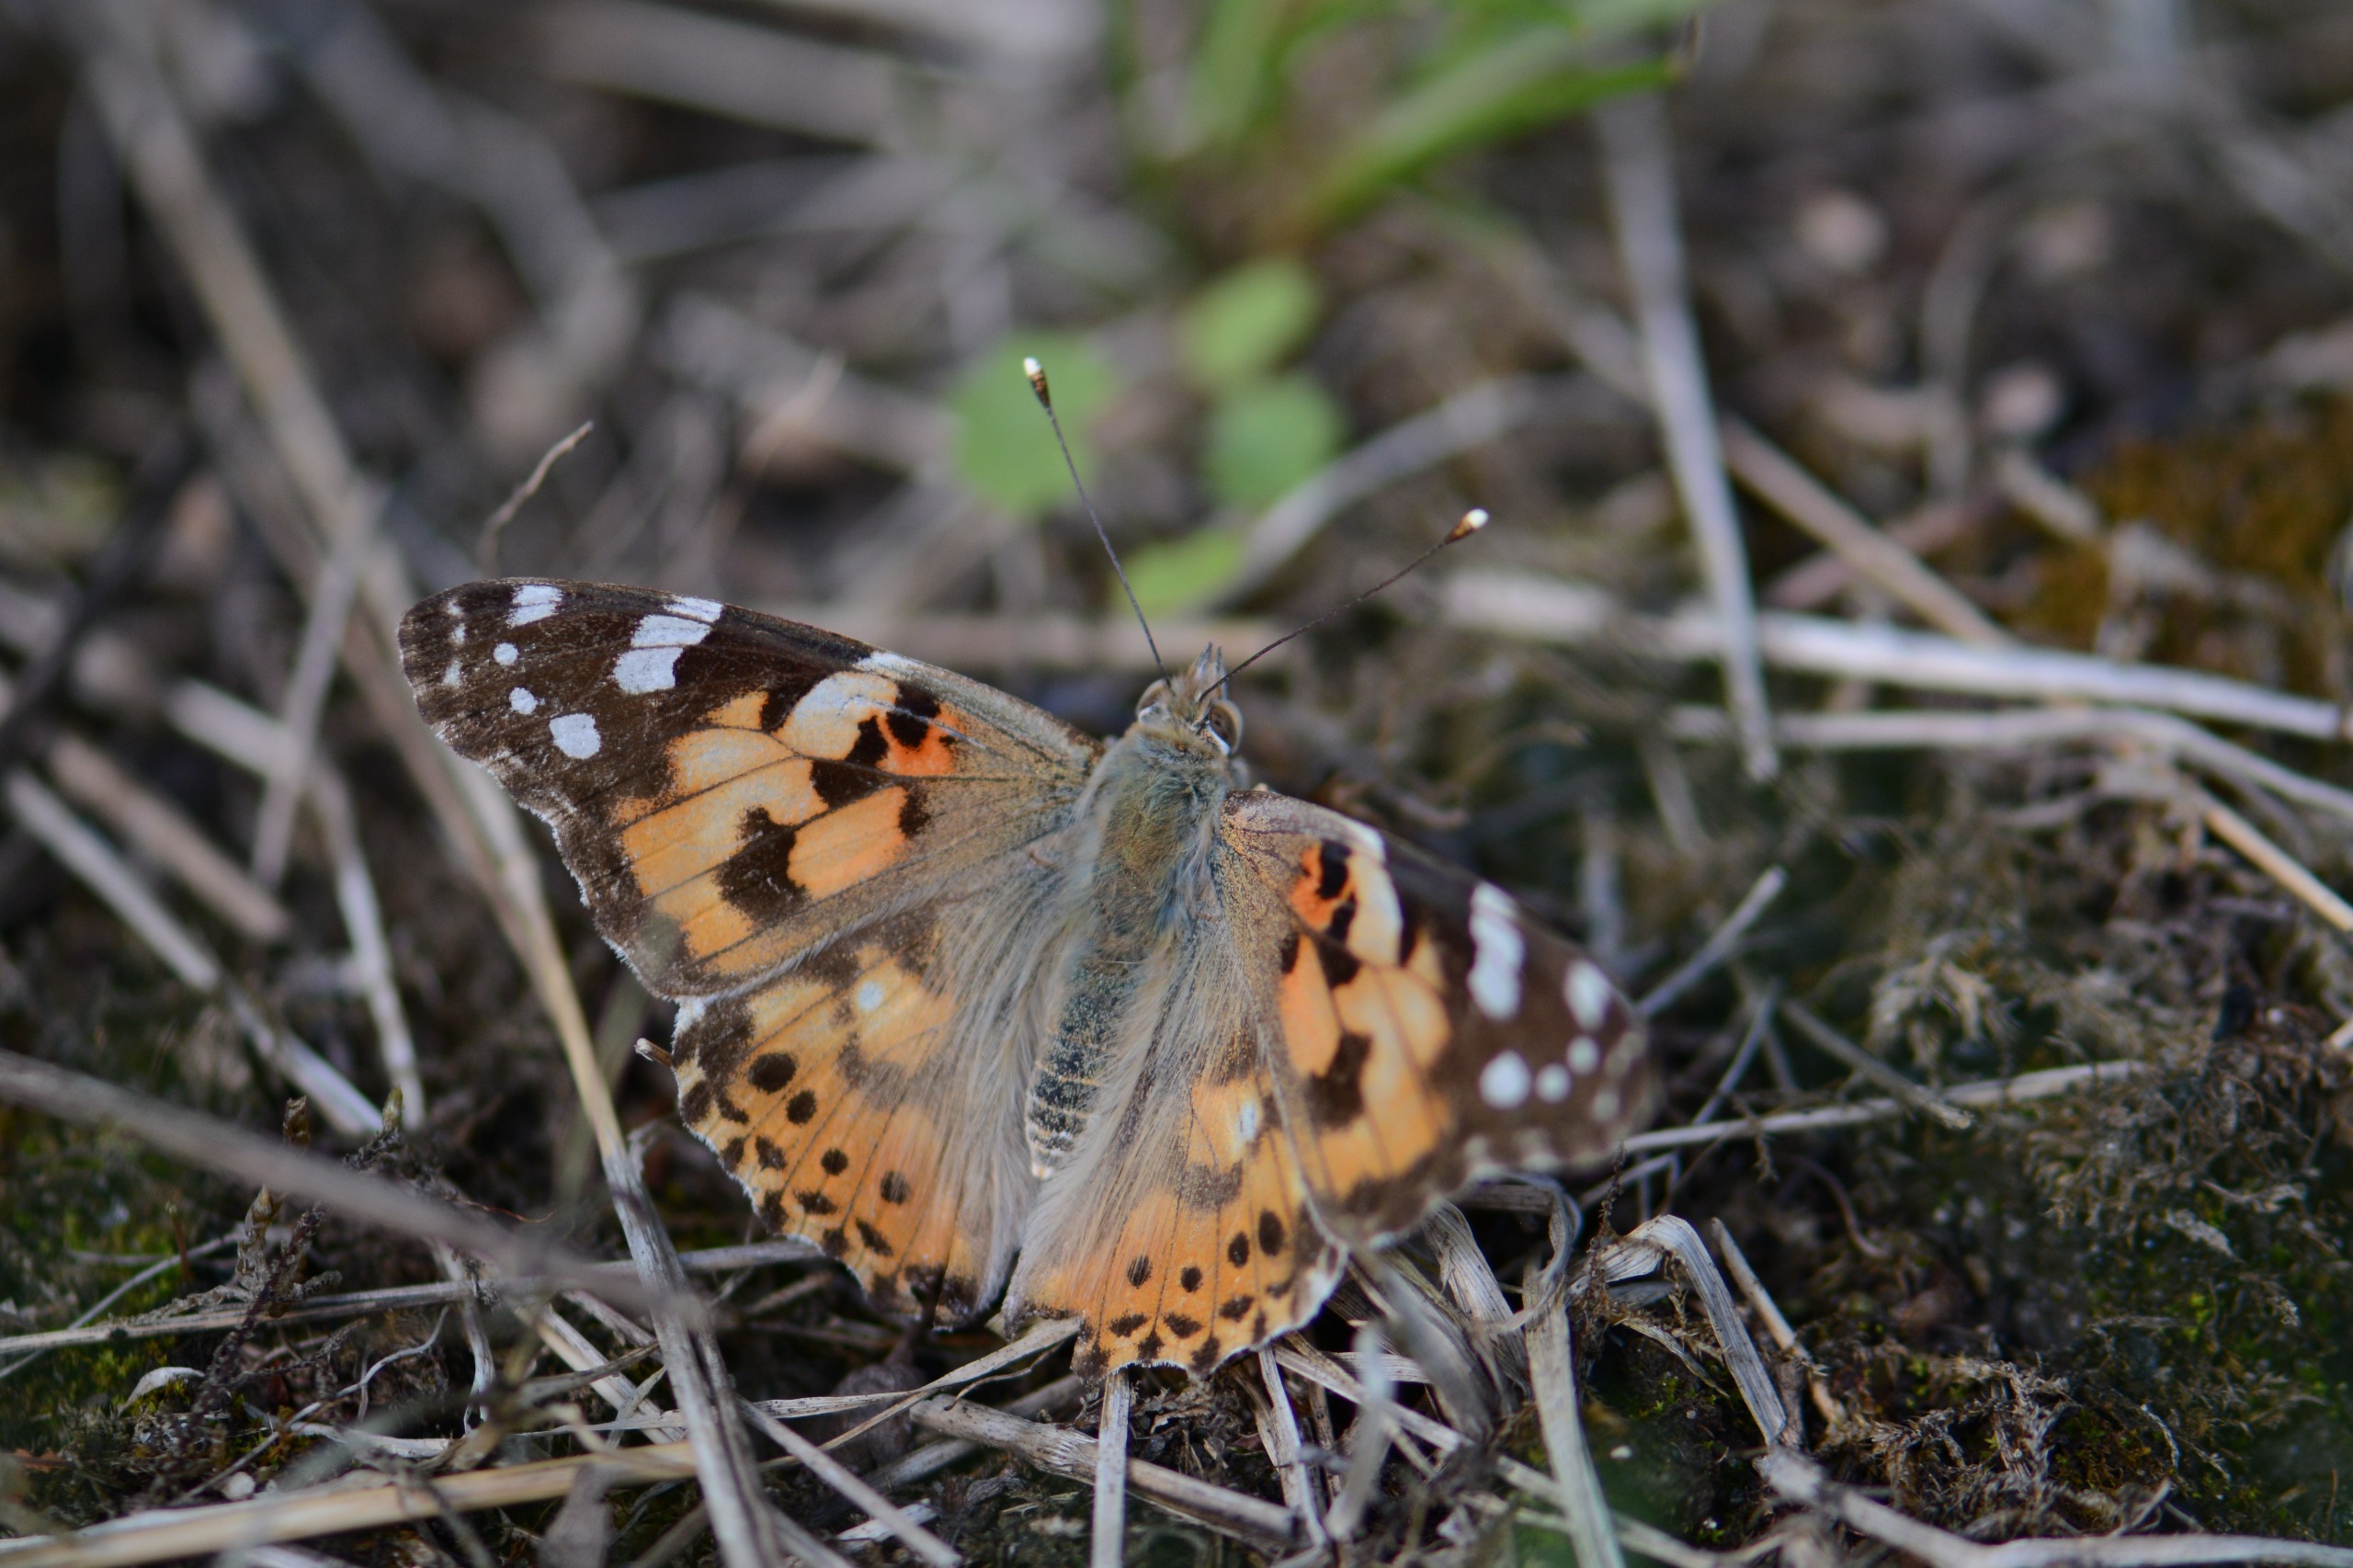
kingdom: Animalia
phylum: Arthropoda
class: Insecta
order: Lepidoptera
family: Nymphalidae
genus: Vanessa
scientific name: Vanessa cardui
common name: Tidselsommerfugl
